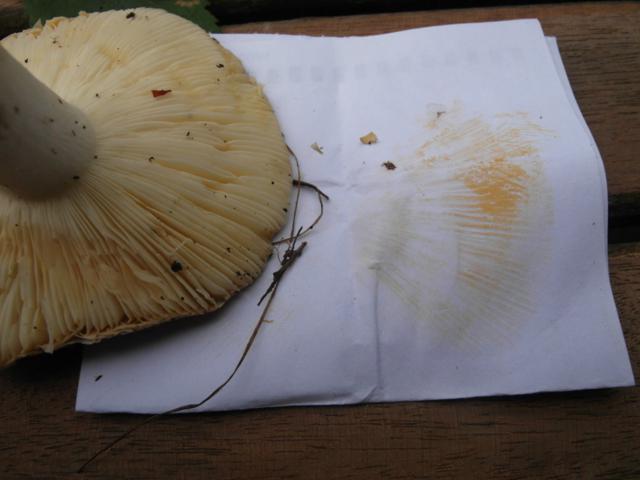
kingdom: Fungi
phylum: Basidiomycota
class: Agaricomycetes
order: Russulales
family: Russulaceae
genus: Russula
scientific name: Russula sardonia
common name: citronbladet skørhat
